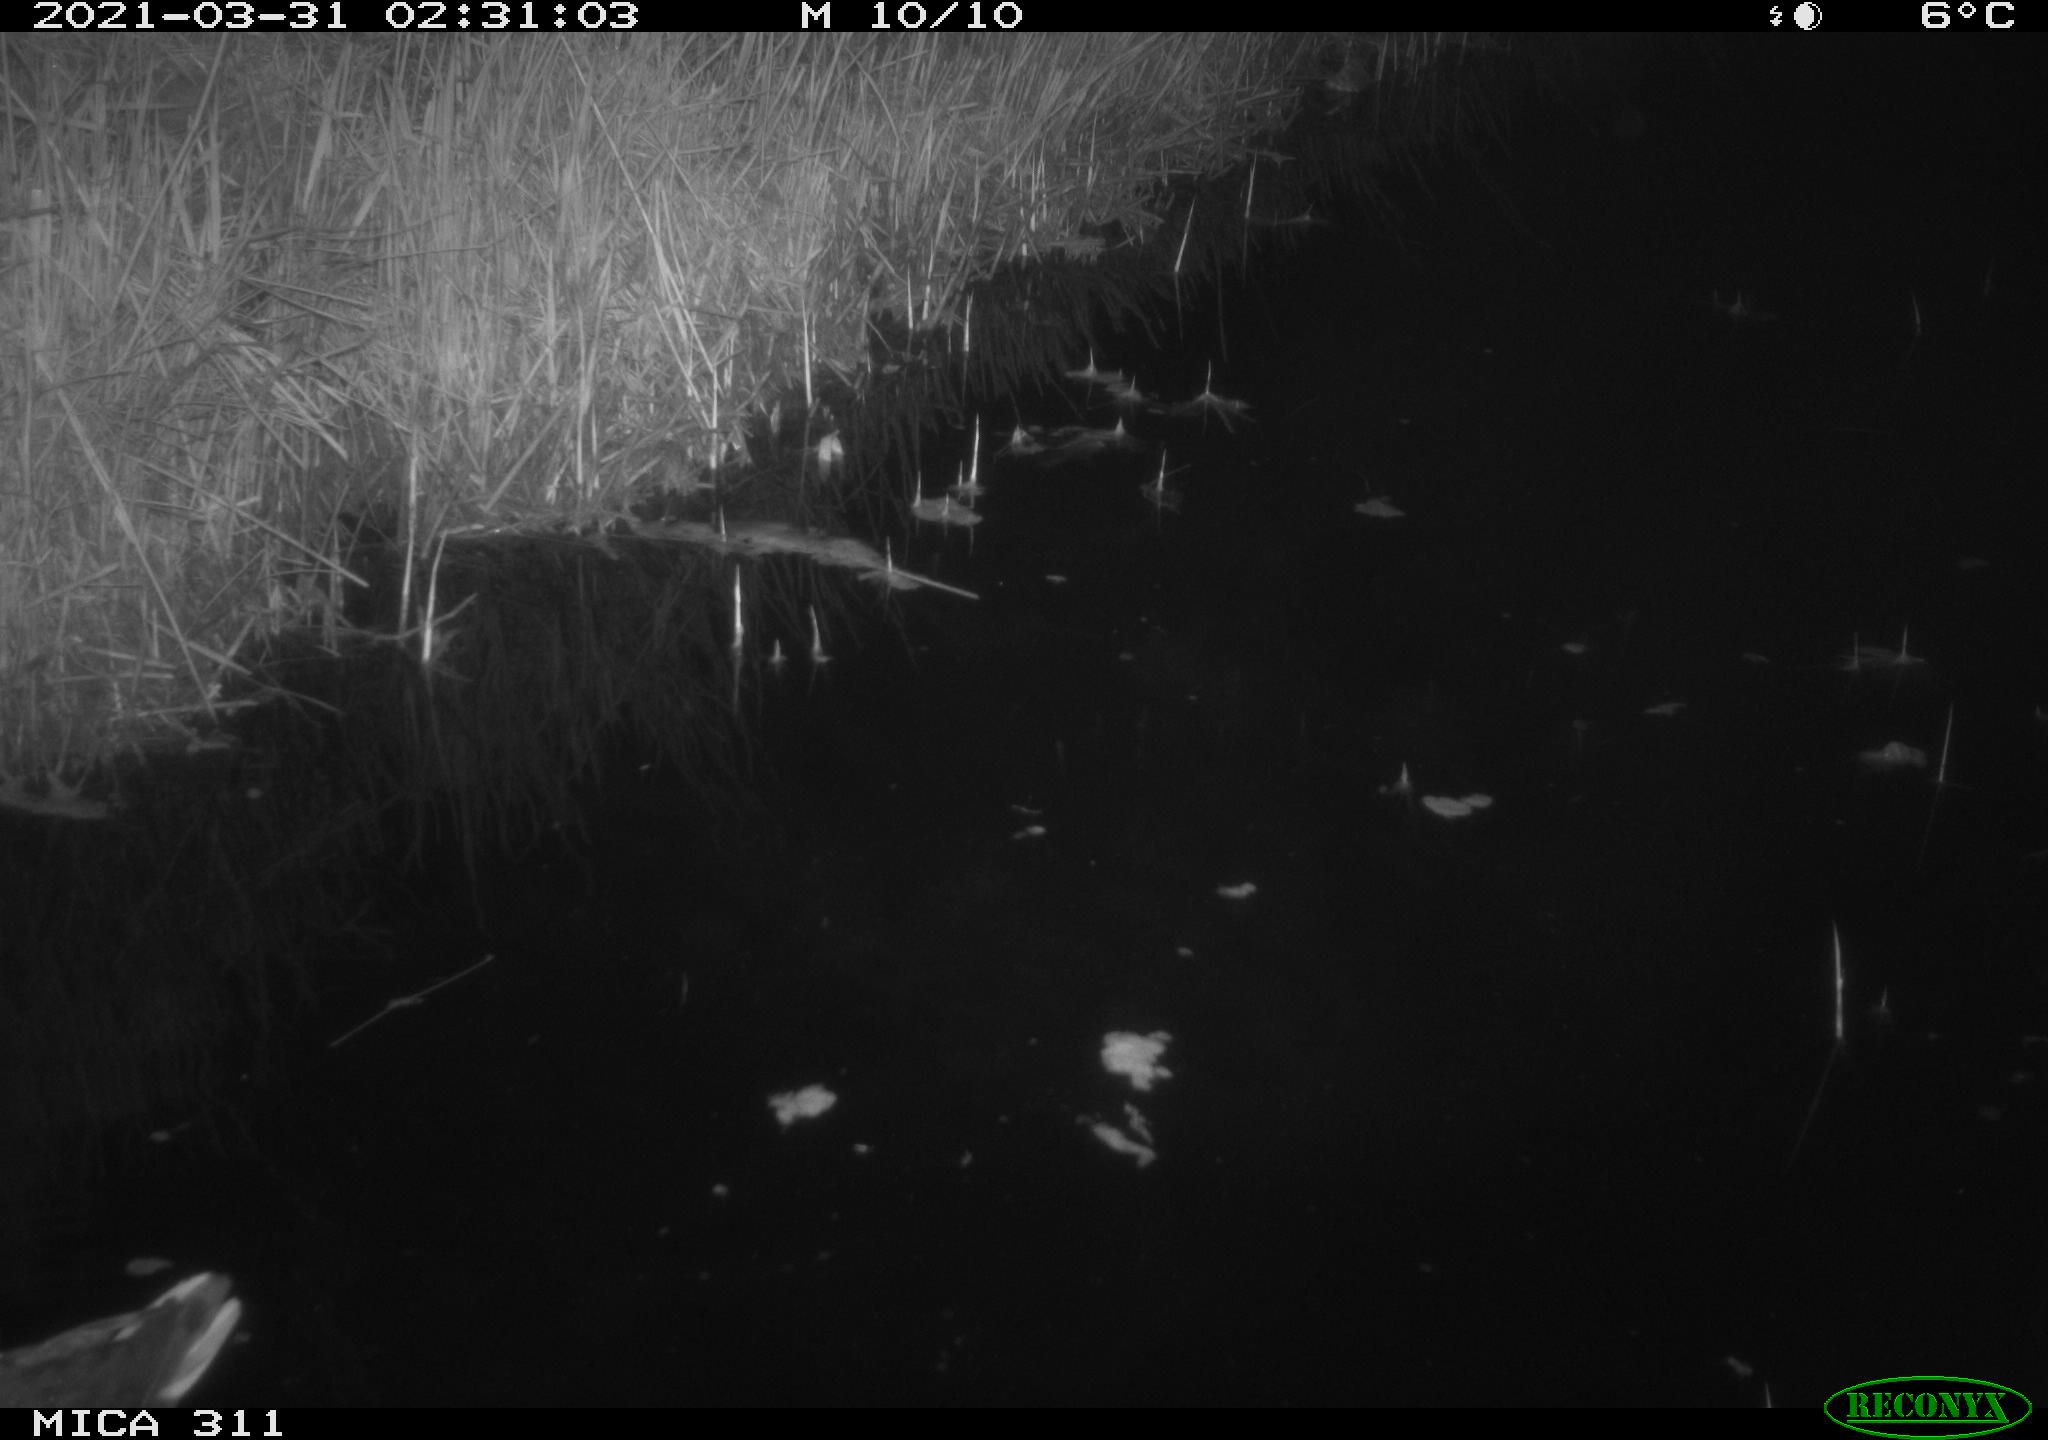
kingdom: Animalia
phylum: Chordata
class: Aves
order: Gruiformes
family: Rallidae
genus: Gallinula
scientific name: Gallinula chloropus
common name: Common moorhen
